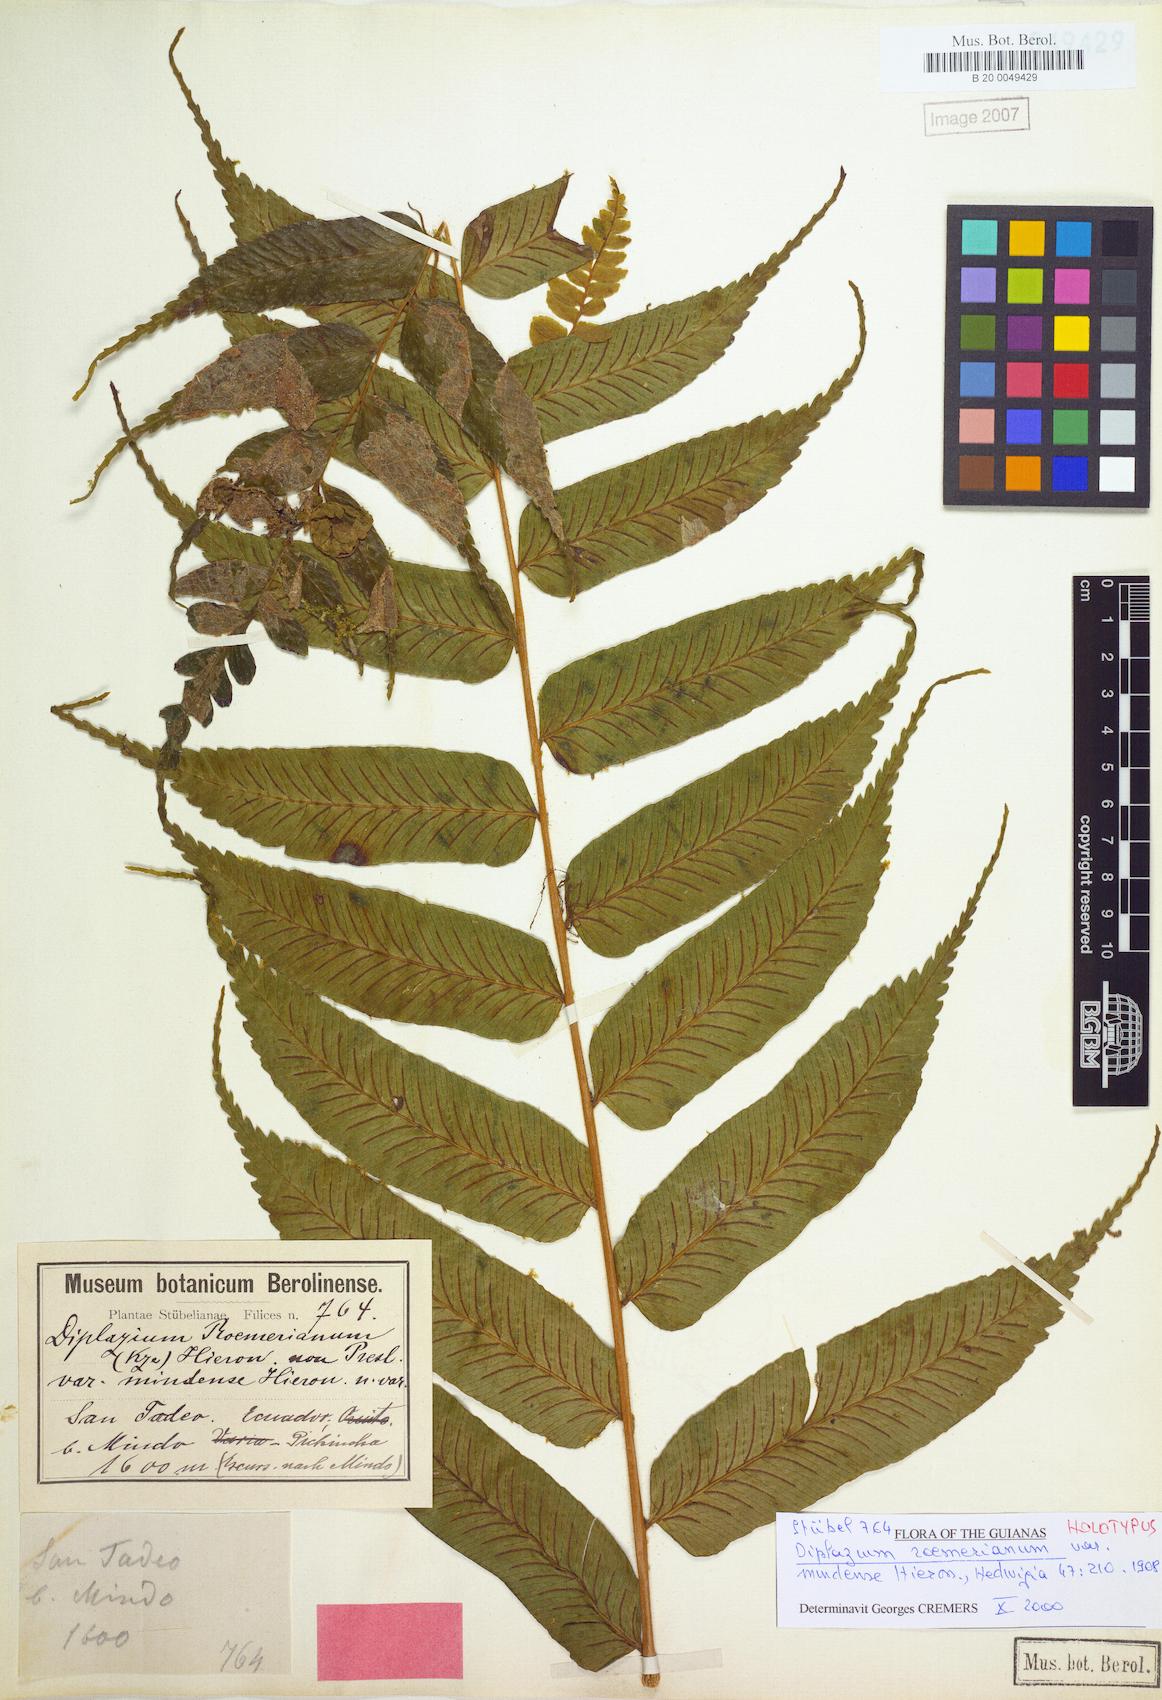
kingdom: Plantae
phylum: Tracheophyta
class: Polypodiopsida
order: Polypodiales
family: Athyriaceae
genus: Diplazium
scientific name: Diplazium roemerianum
